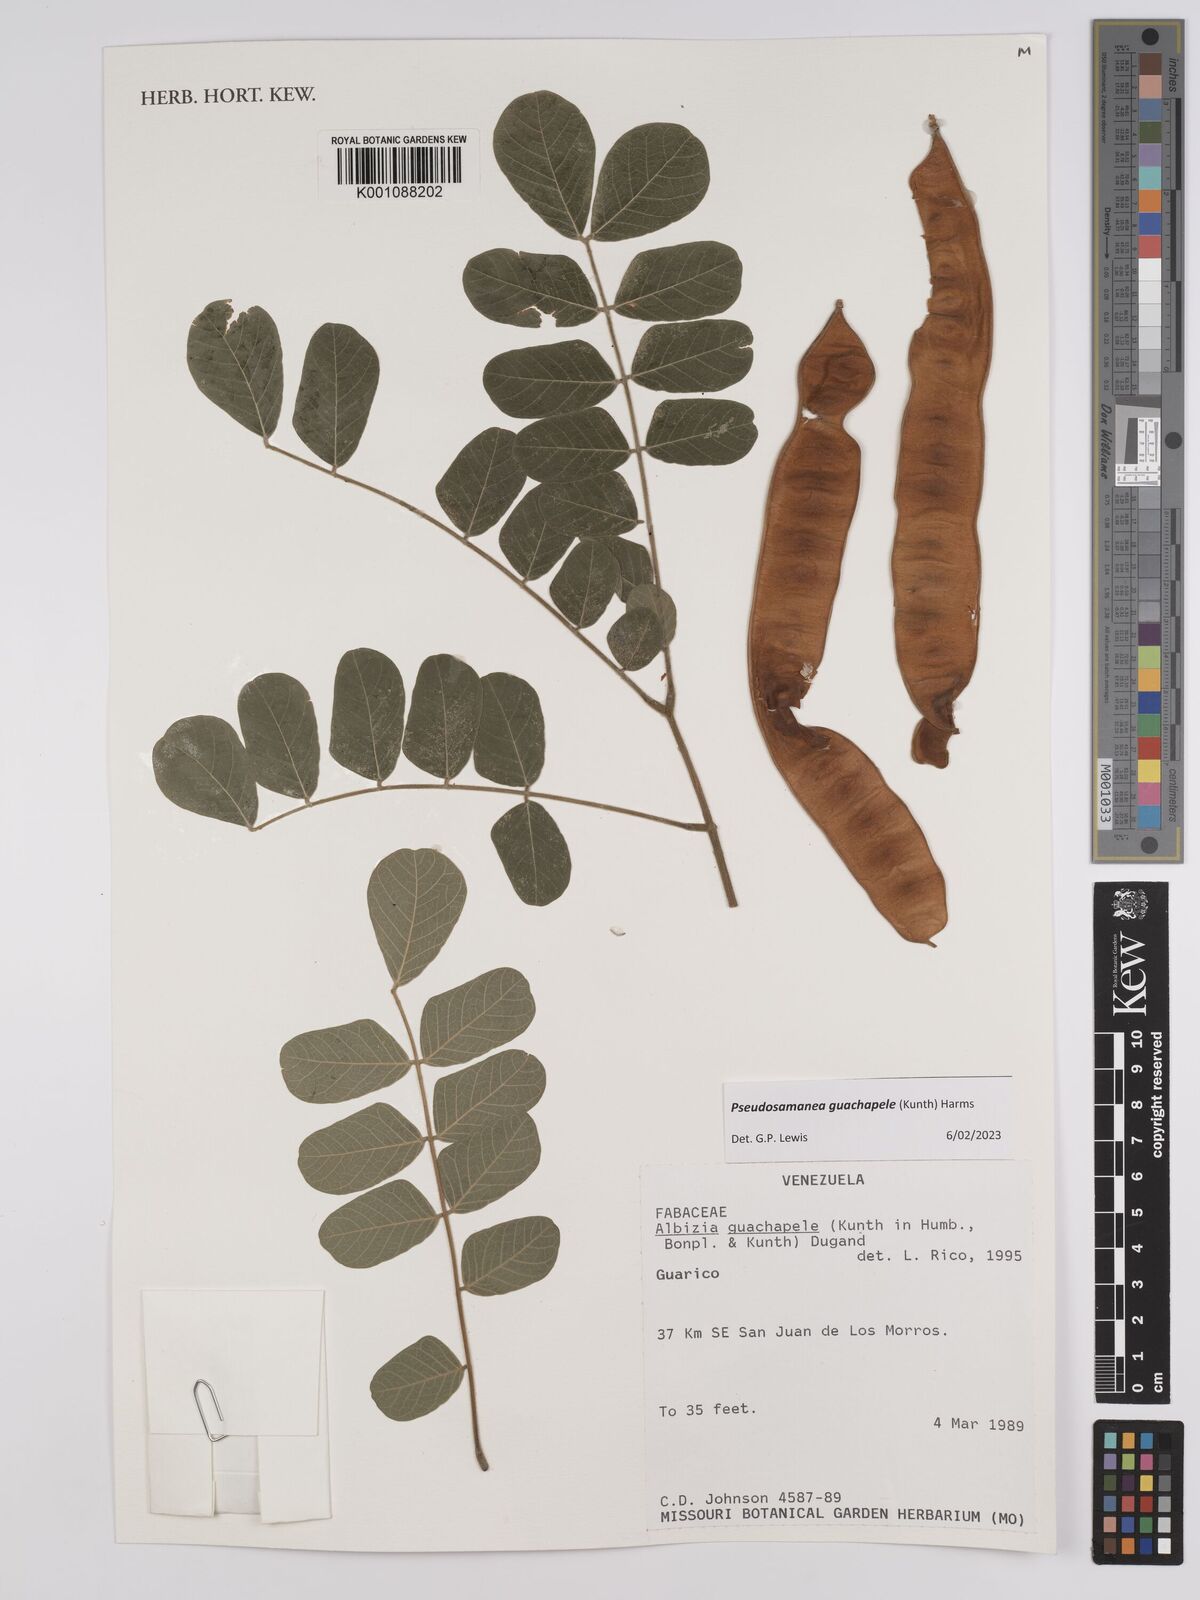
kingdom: Plantae
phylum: Tracheophyta
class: Magnoliopsida
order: Fabales
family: Fabaceae
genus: Pseudosamanea
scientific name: Pseudosamanea guachapele
